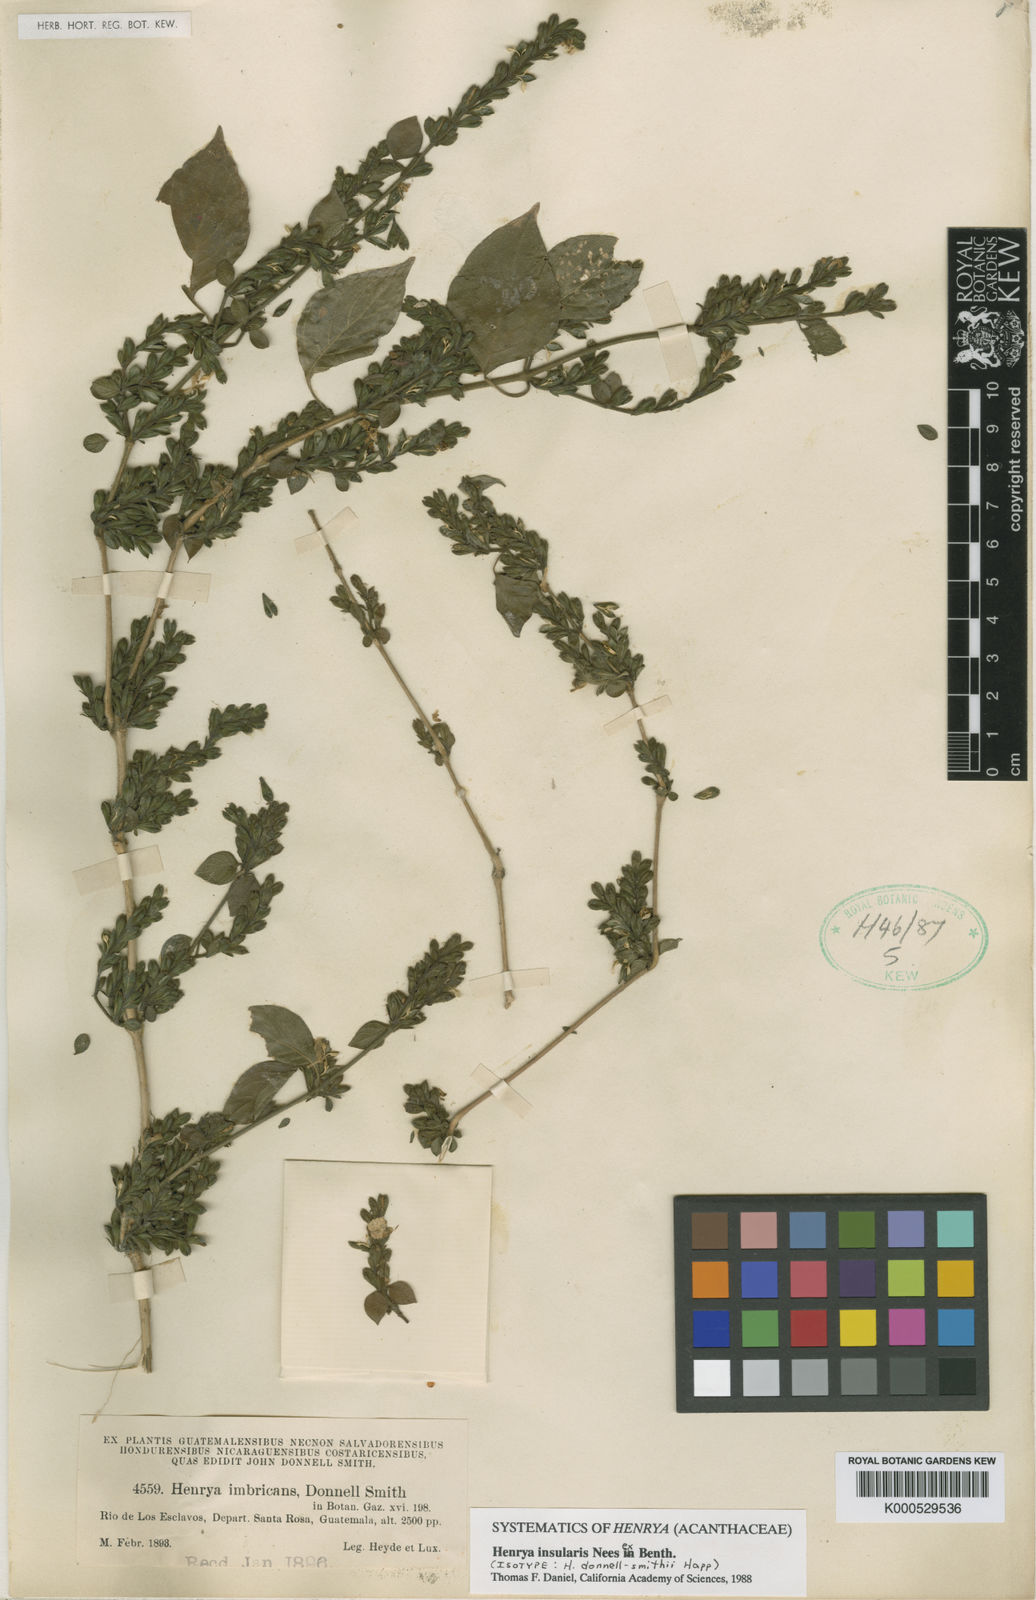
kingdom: Plantae
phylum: Tracheophyta
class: Magnoliopsida
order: Lamiales
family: Acanthaceae
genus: Henrya
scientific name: Henrya
